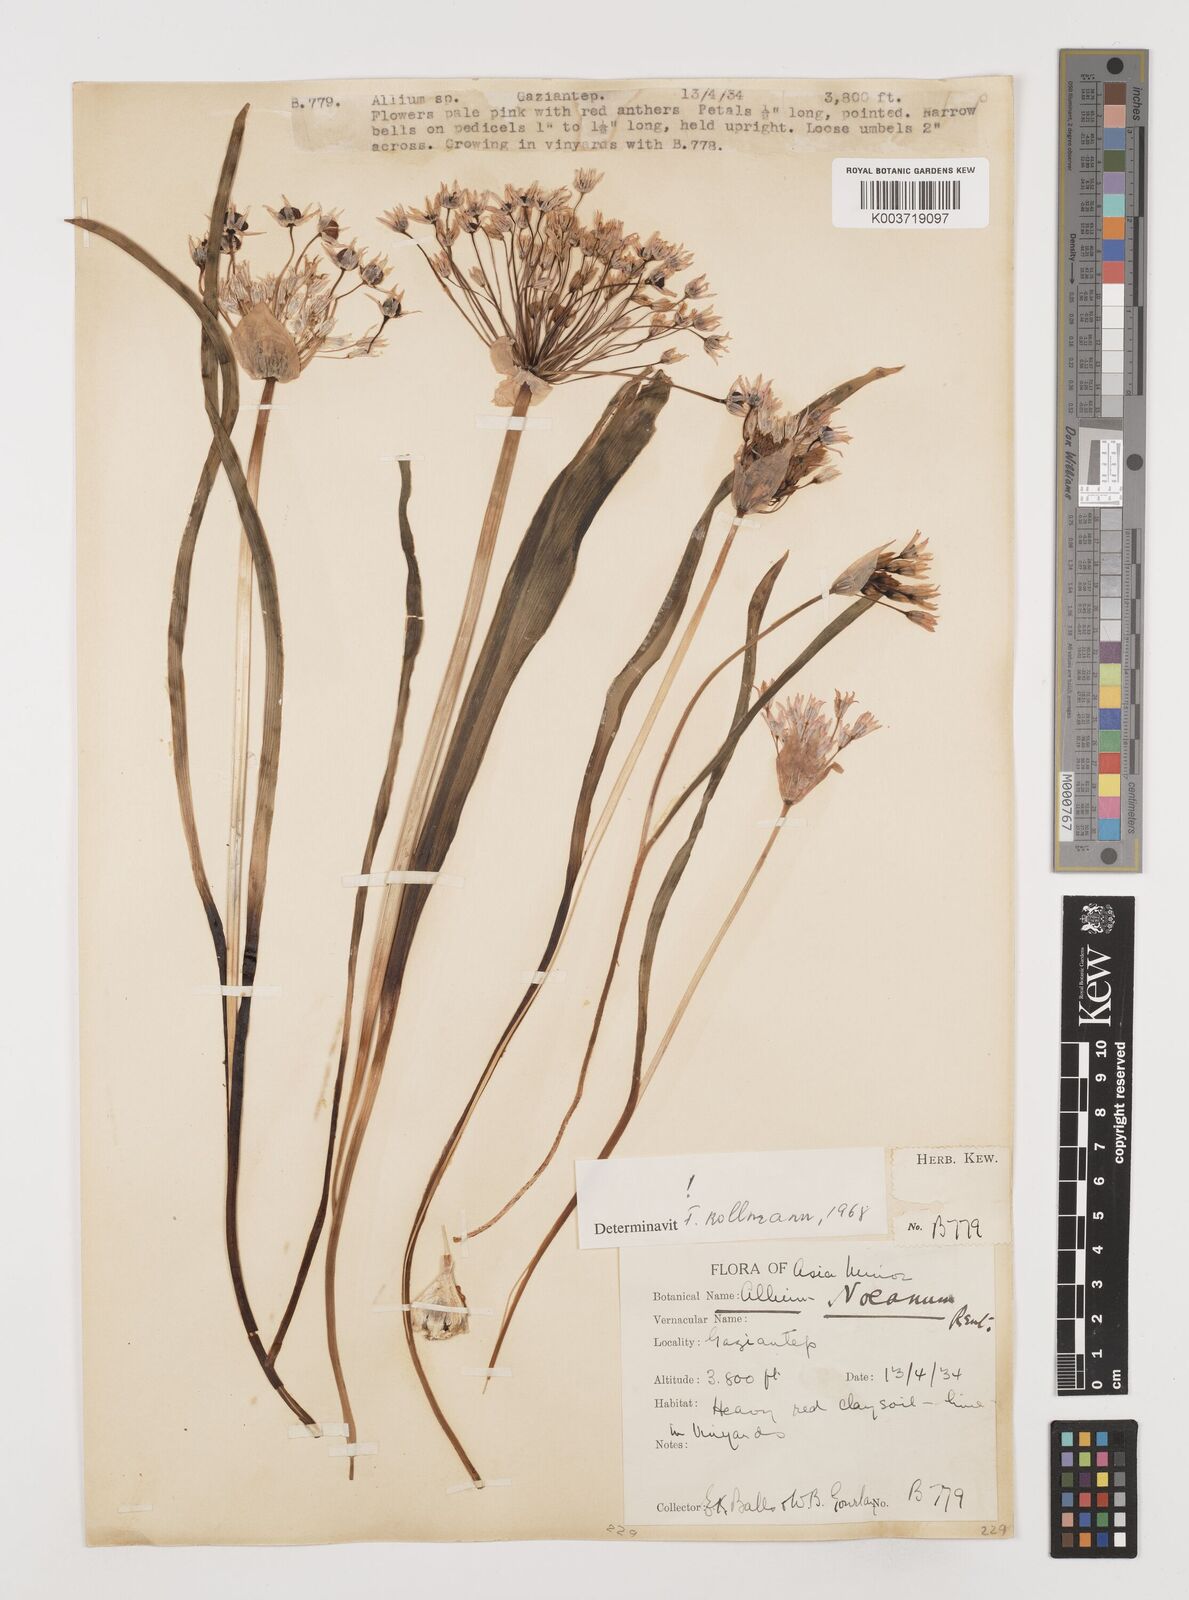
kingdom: Plantae
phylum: Tracheophyta
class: Liliopsida
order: Asparagales
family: Amaryllidaceae
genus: Allium
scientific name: Allium noeanum
